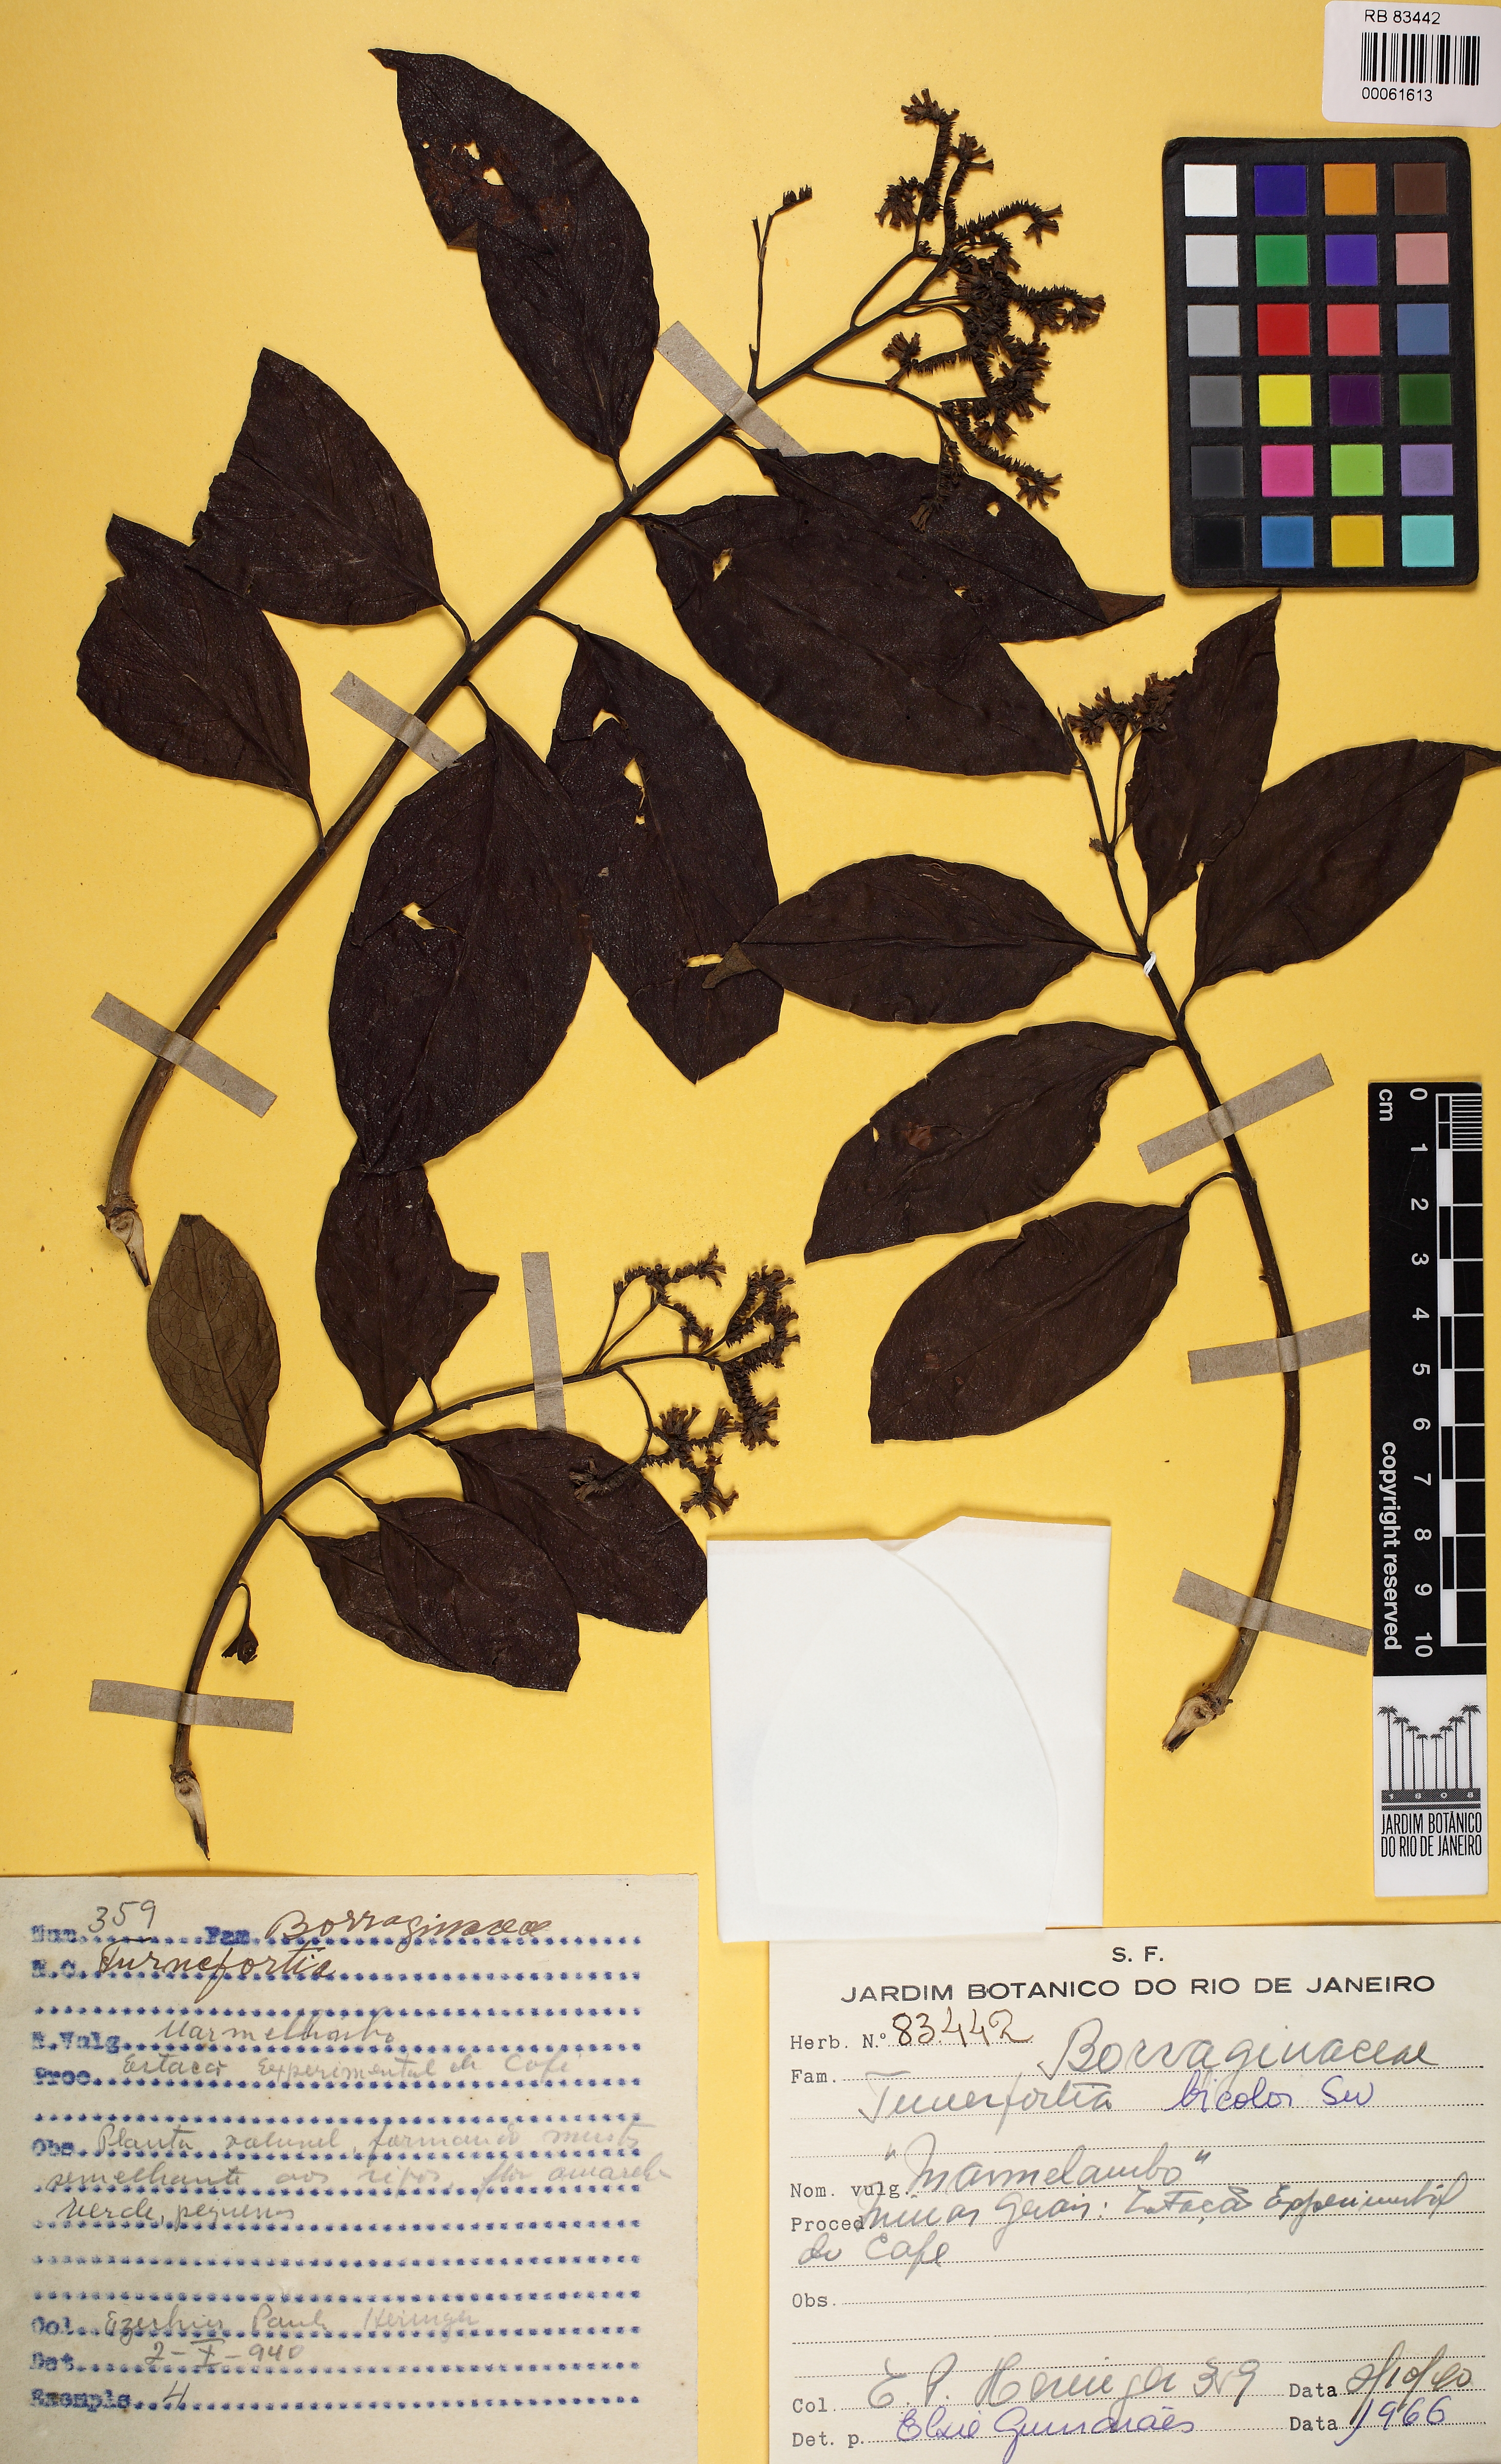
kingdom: Plantae
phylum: Tracheophyta
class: Magnoliopsida
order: Boraginales
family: Heliotropiaceae
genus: Heliotropium
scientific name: Heliotropium verdcourtii
